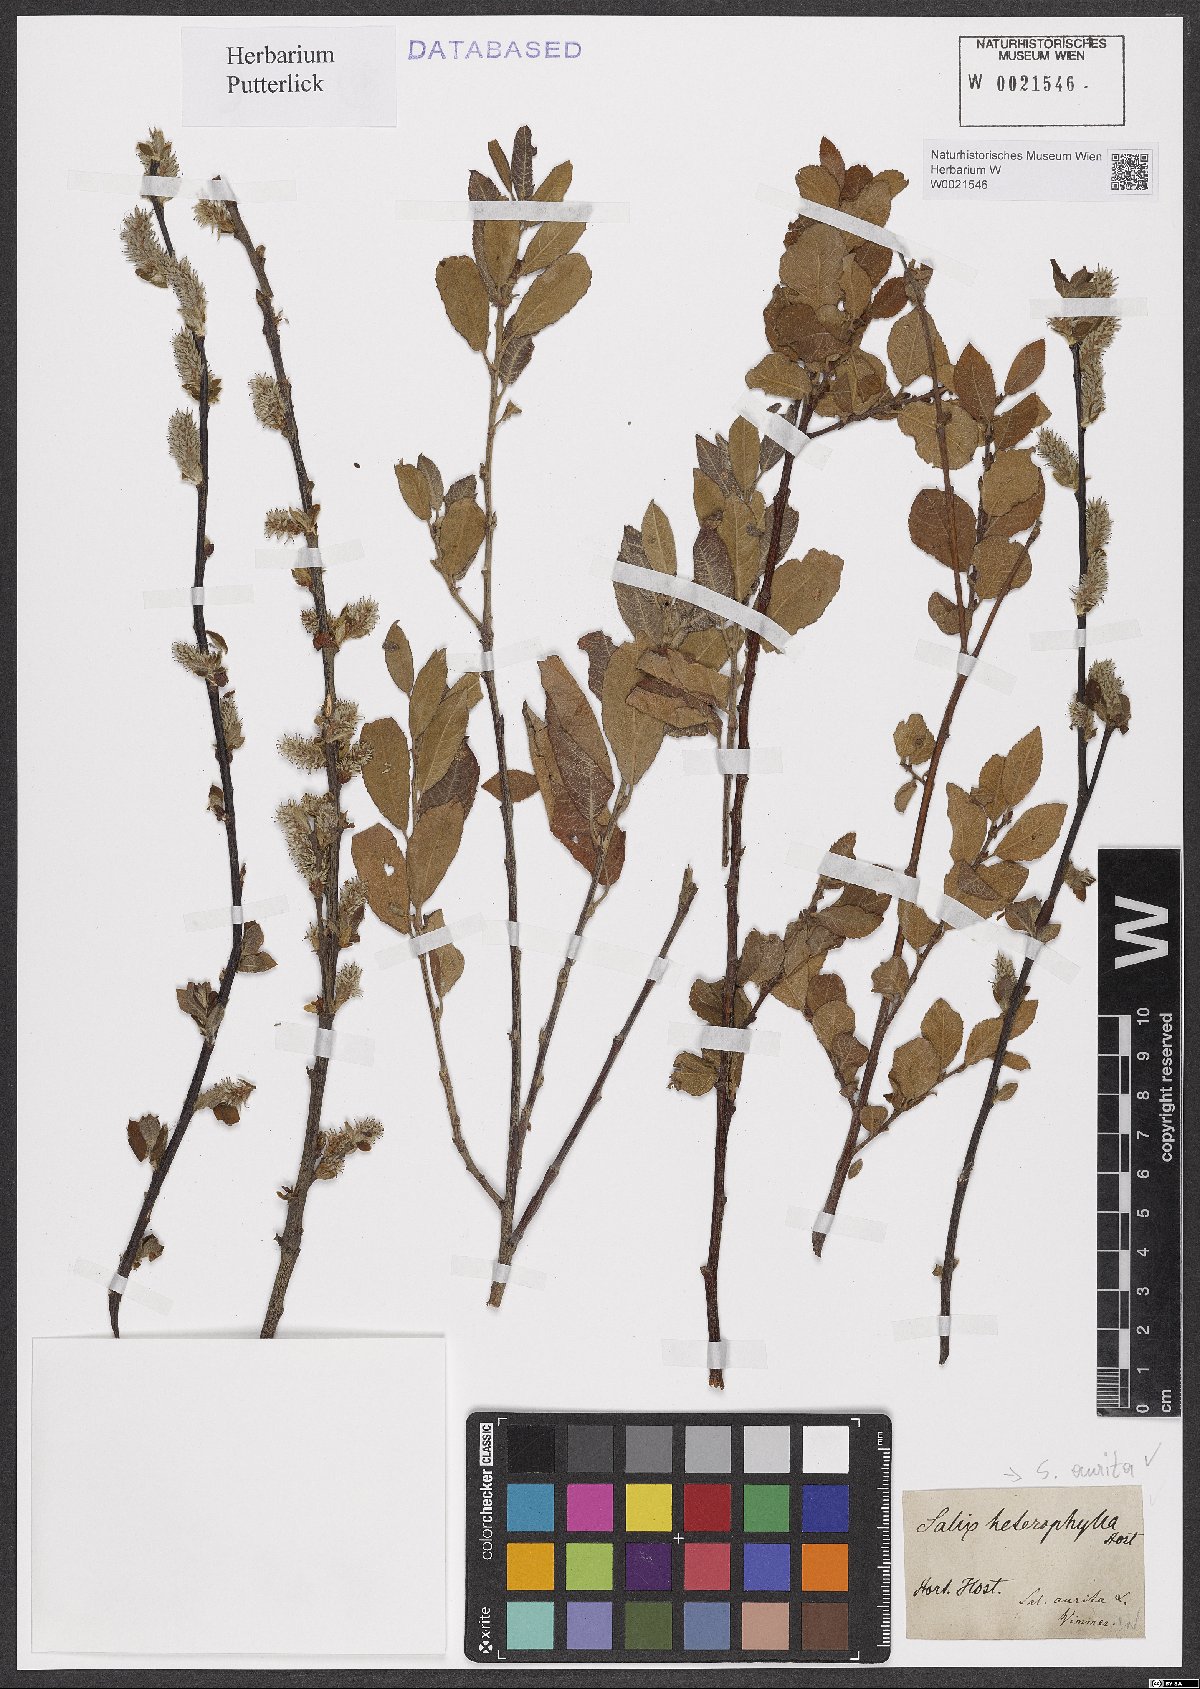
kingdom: Plantae
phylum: Tracheophyta
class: Magnoliopsida
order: Malpighiales
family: Salicaceae
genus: Salix
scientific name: Salix aurita
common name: Eared willow
